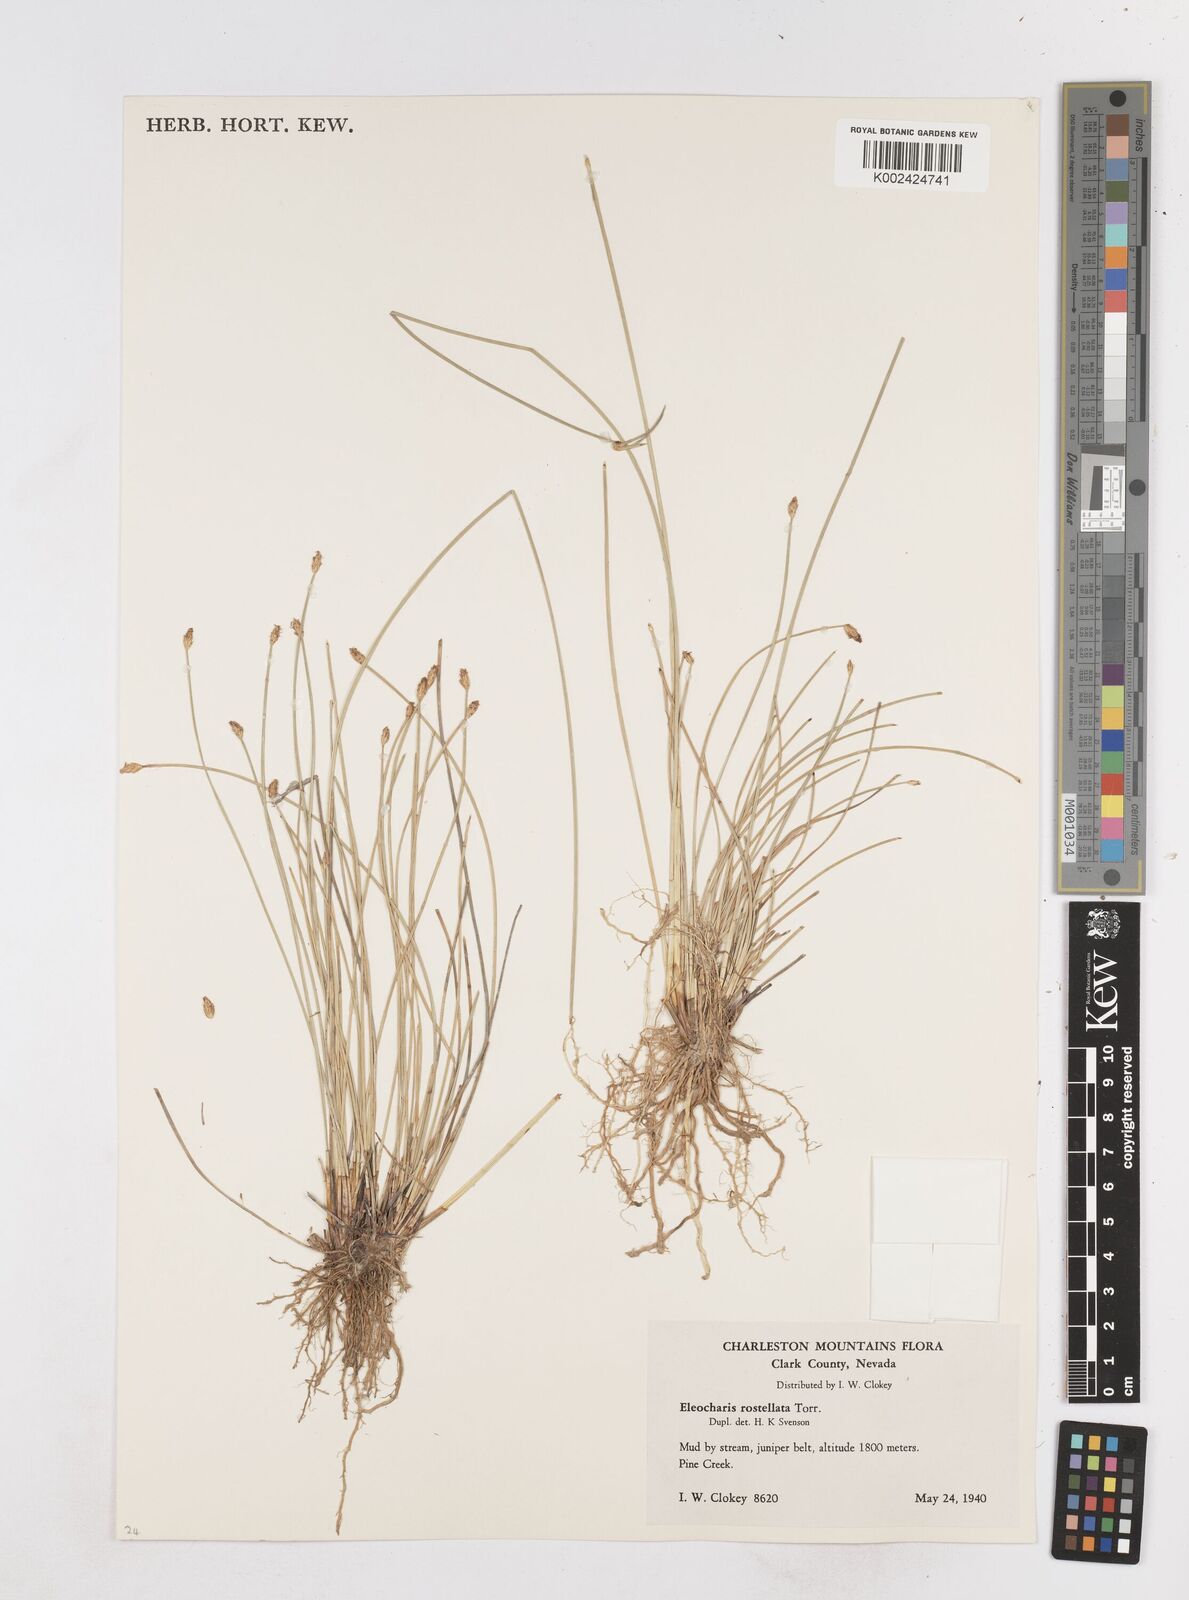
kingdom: Plantae
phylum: Tracheophyta
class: Liliopsida
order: Poales
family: Cyperaceae
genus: Eleocharis
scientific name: Eleocharis rostellata
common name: Walking sedge
